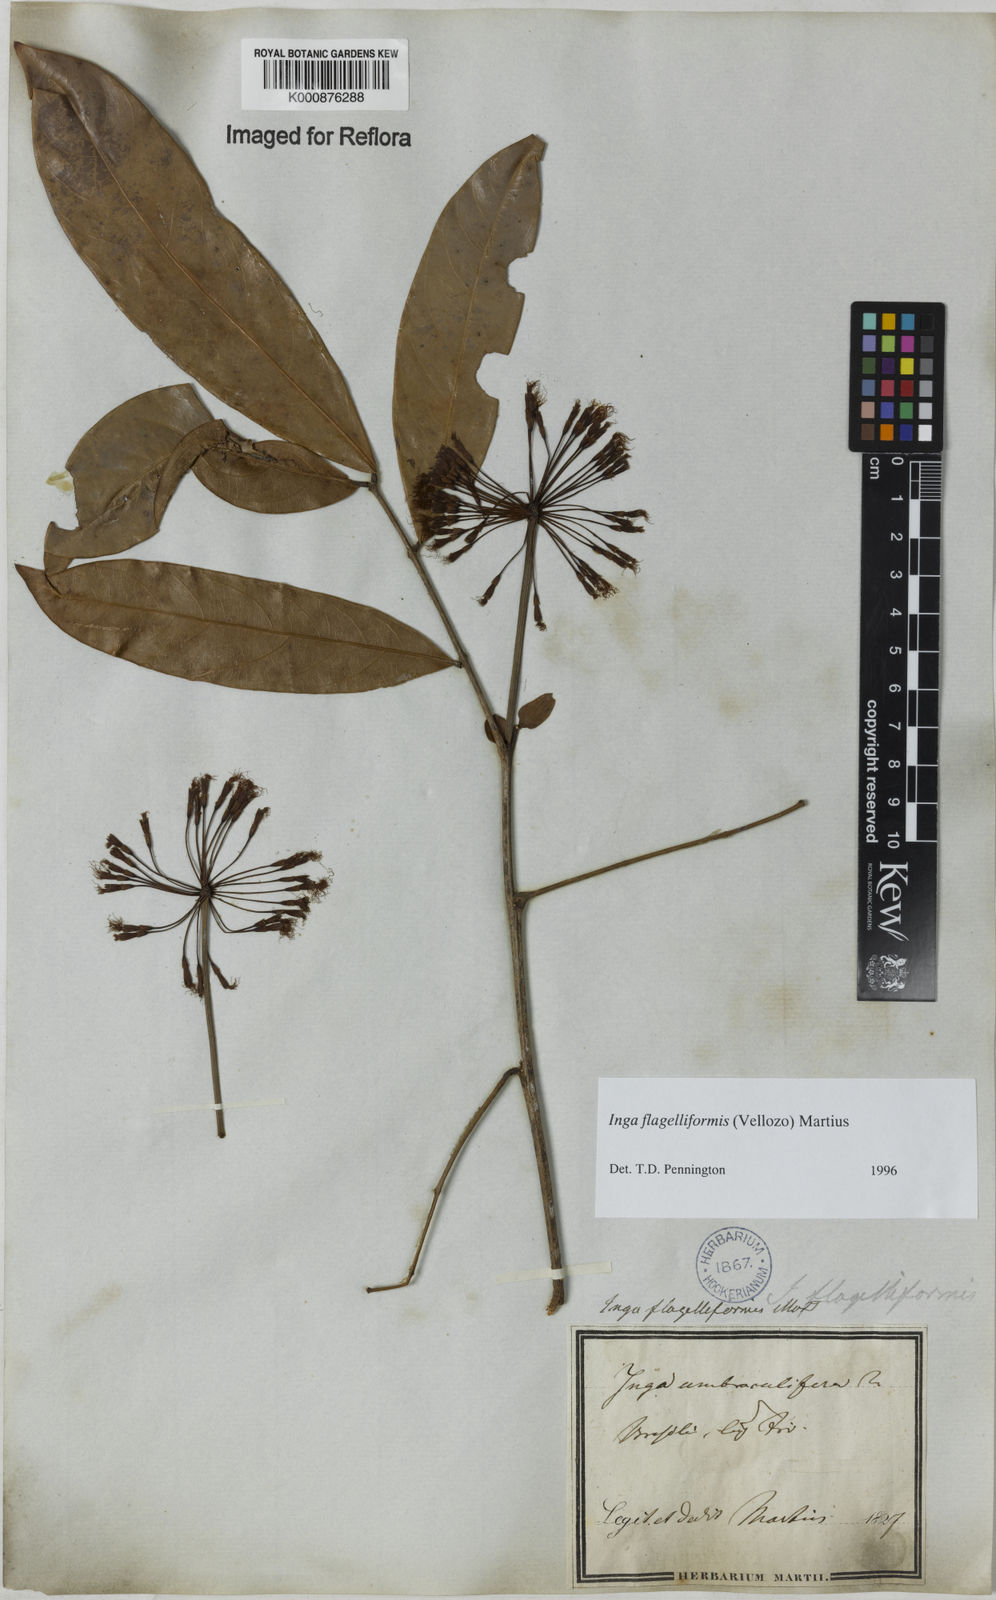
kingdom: Plantae
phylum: Tracheophyta
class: Magnoliopsida
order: Fabales
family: Fabaceae
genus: Inga
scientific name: Inga flagelliformis
